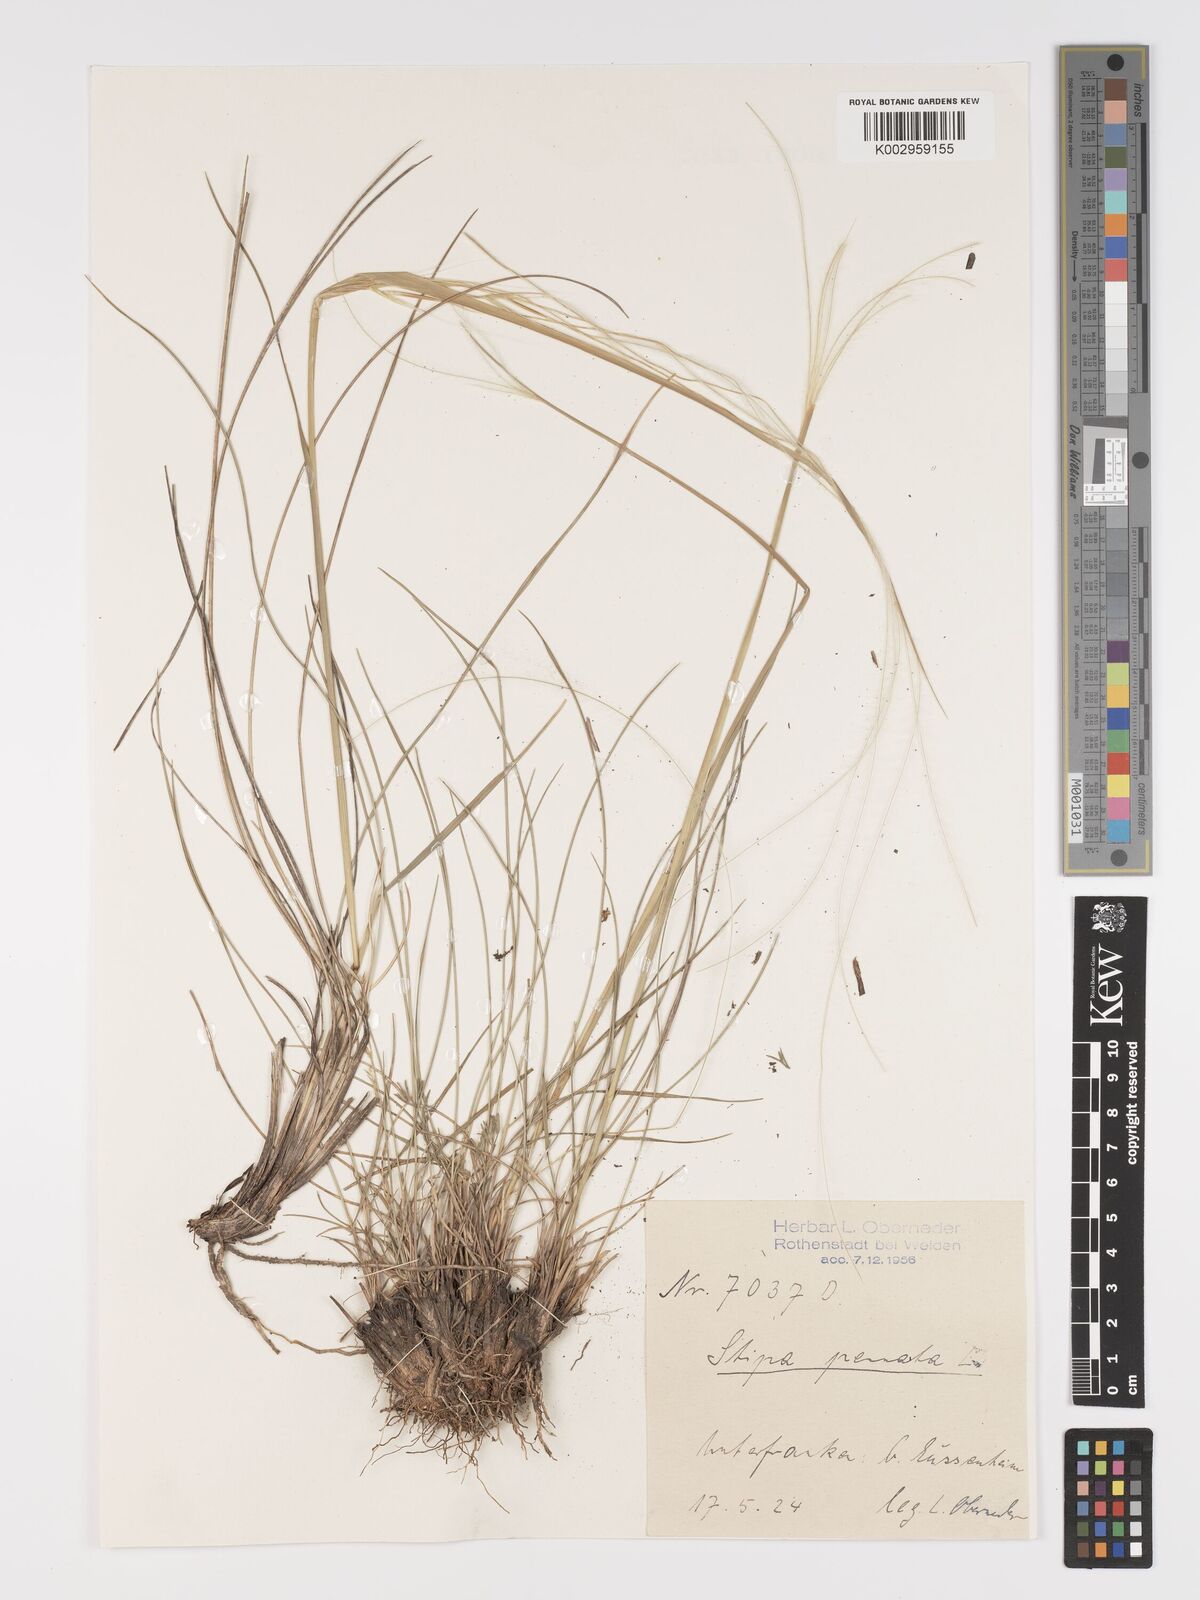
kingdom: Plantae
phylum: Tracheophyta
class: Liliopsida
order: Poales
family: Poaceae
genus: Stipa
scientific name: Stipa pennata
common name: European feather grass
